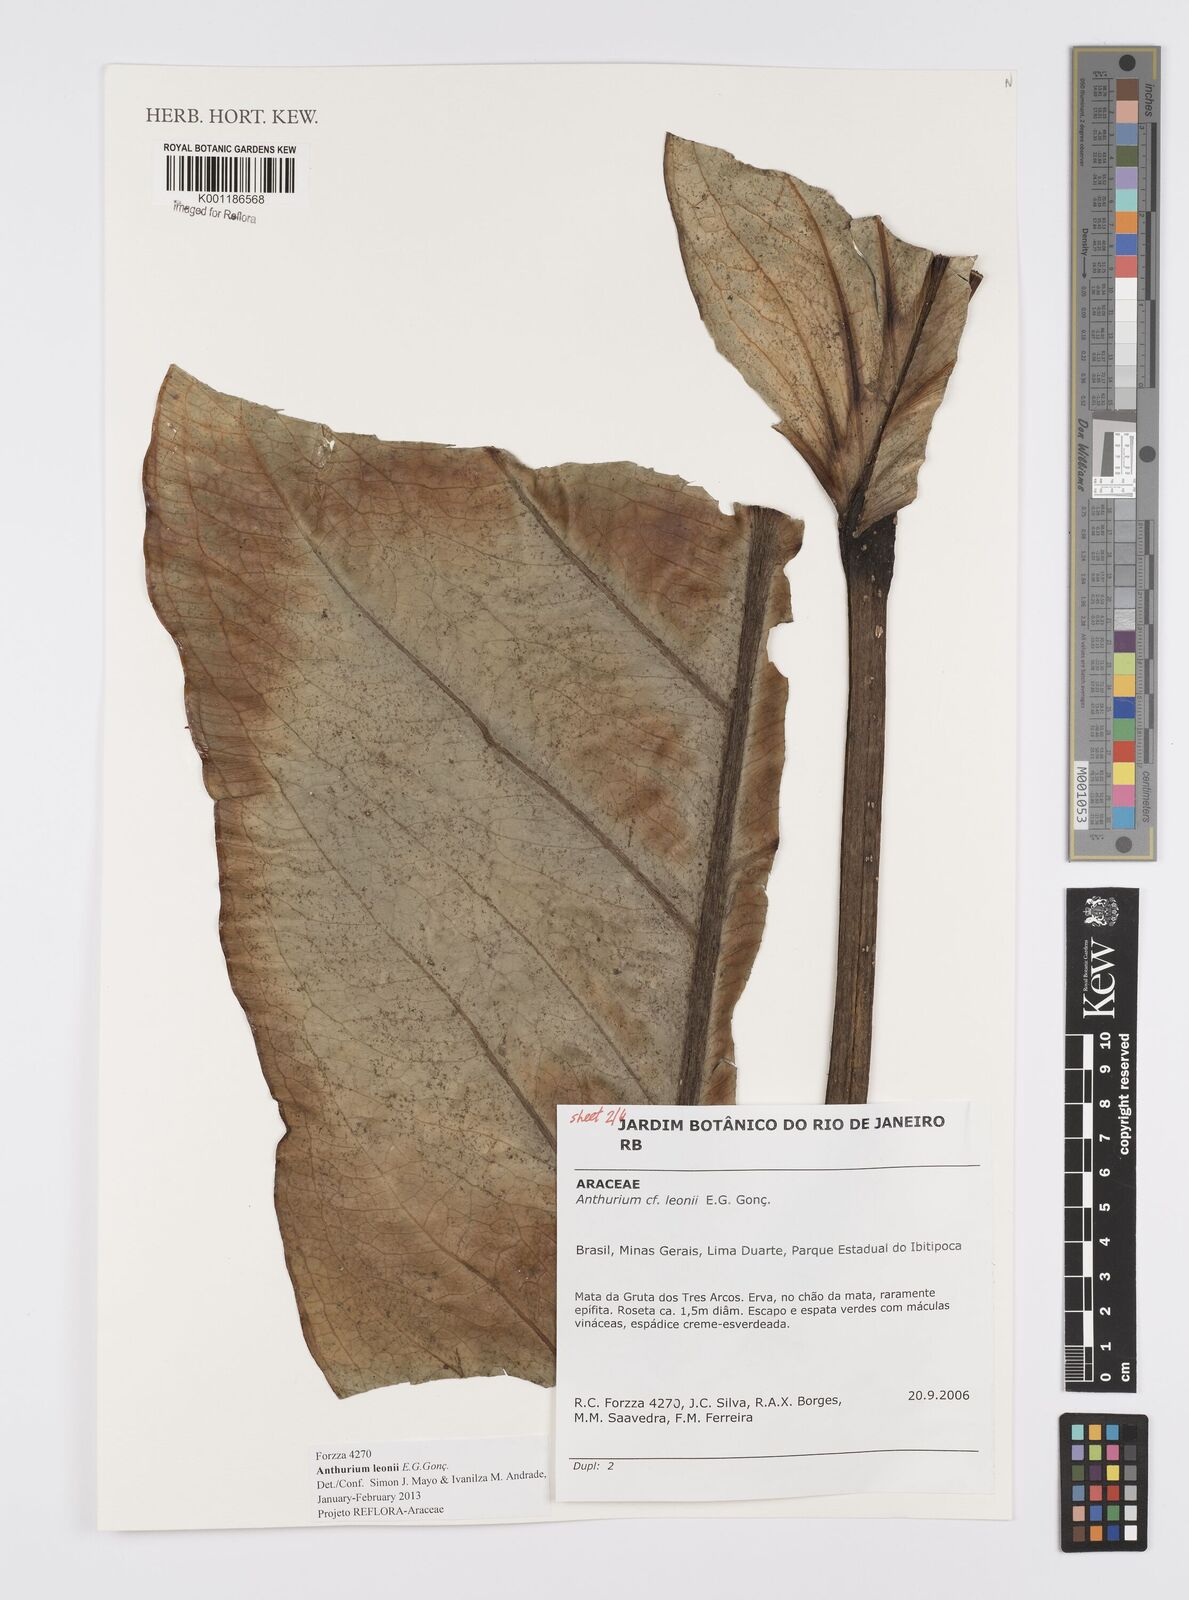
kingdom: Plantae
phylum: Tracheophyta
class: Liliopsida
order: Alismatales
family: Araceae
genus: Anthurium
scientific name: Anthurium leonii
